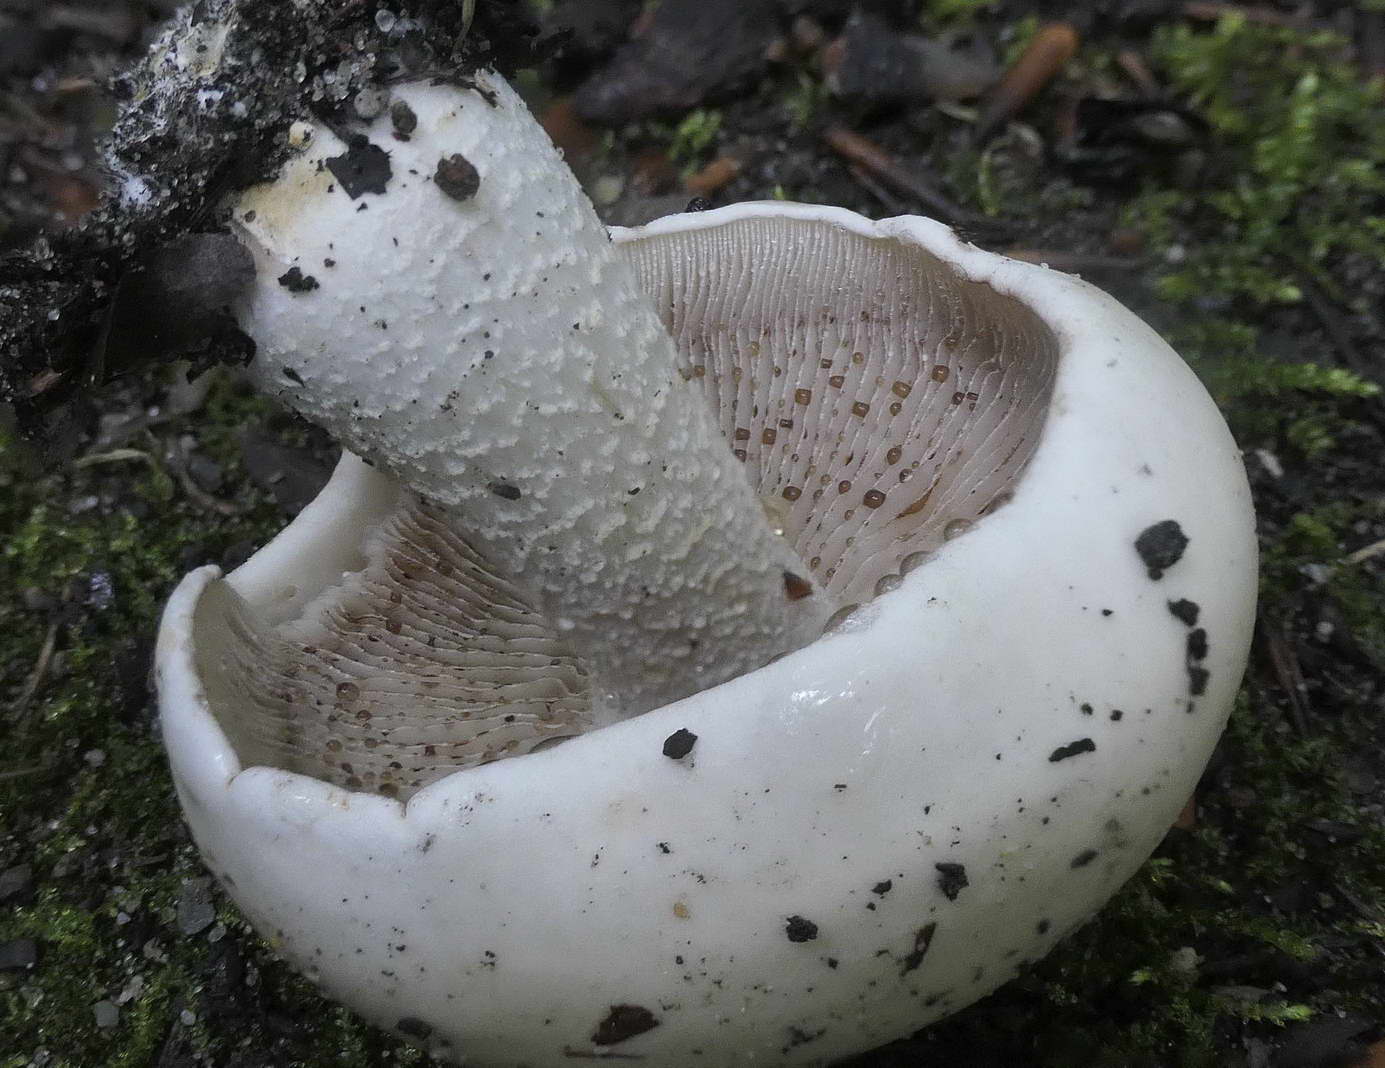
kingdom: Fungi
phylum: Basidiomycota
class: Agaricomycetes
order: Agaricales
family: Hymenogastraceae
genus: Hebeloma
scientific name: Hebeloma
